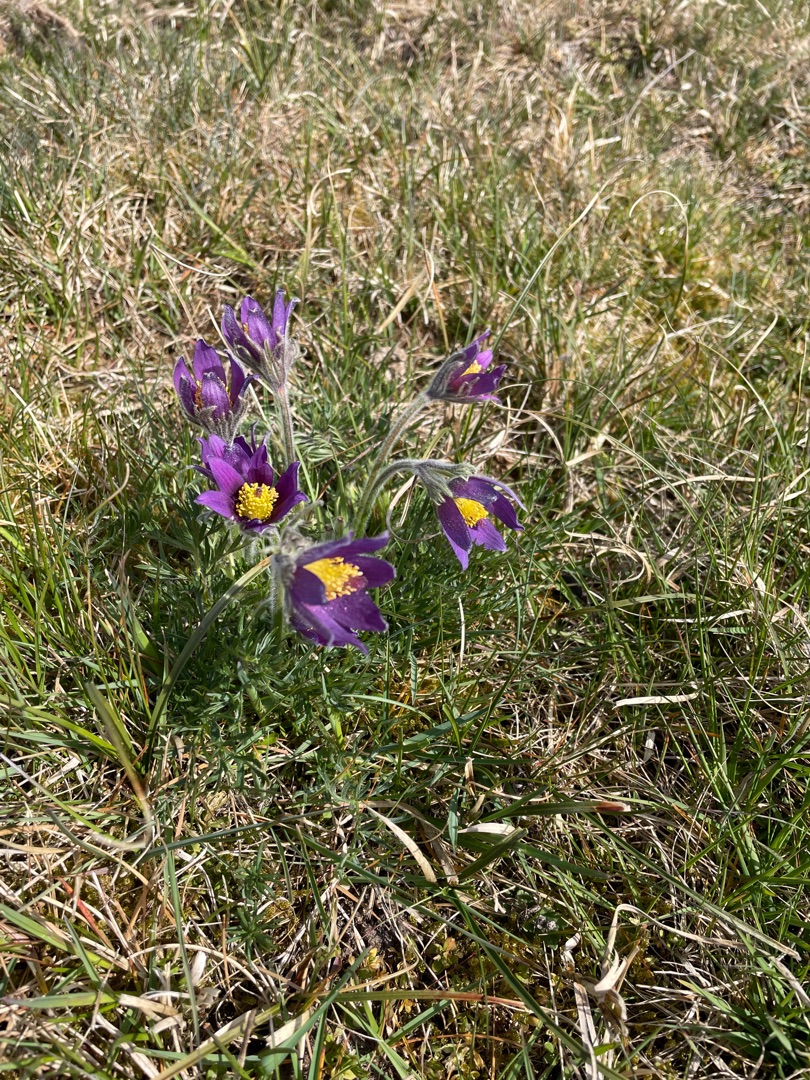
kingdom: Plantae
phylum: Tracheophyta
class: Magnoliopsida
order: Ranunculales
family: Ranunculaceae
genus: Pulsatilla
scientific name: Pulsatilla vulgaris
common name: Opret kobjælde
